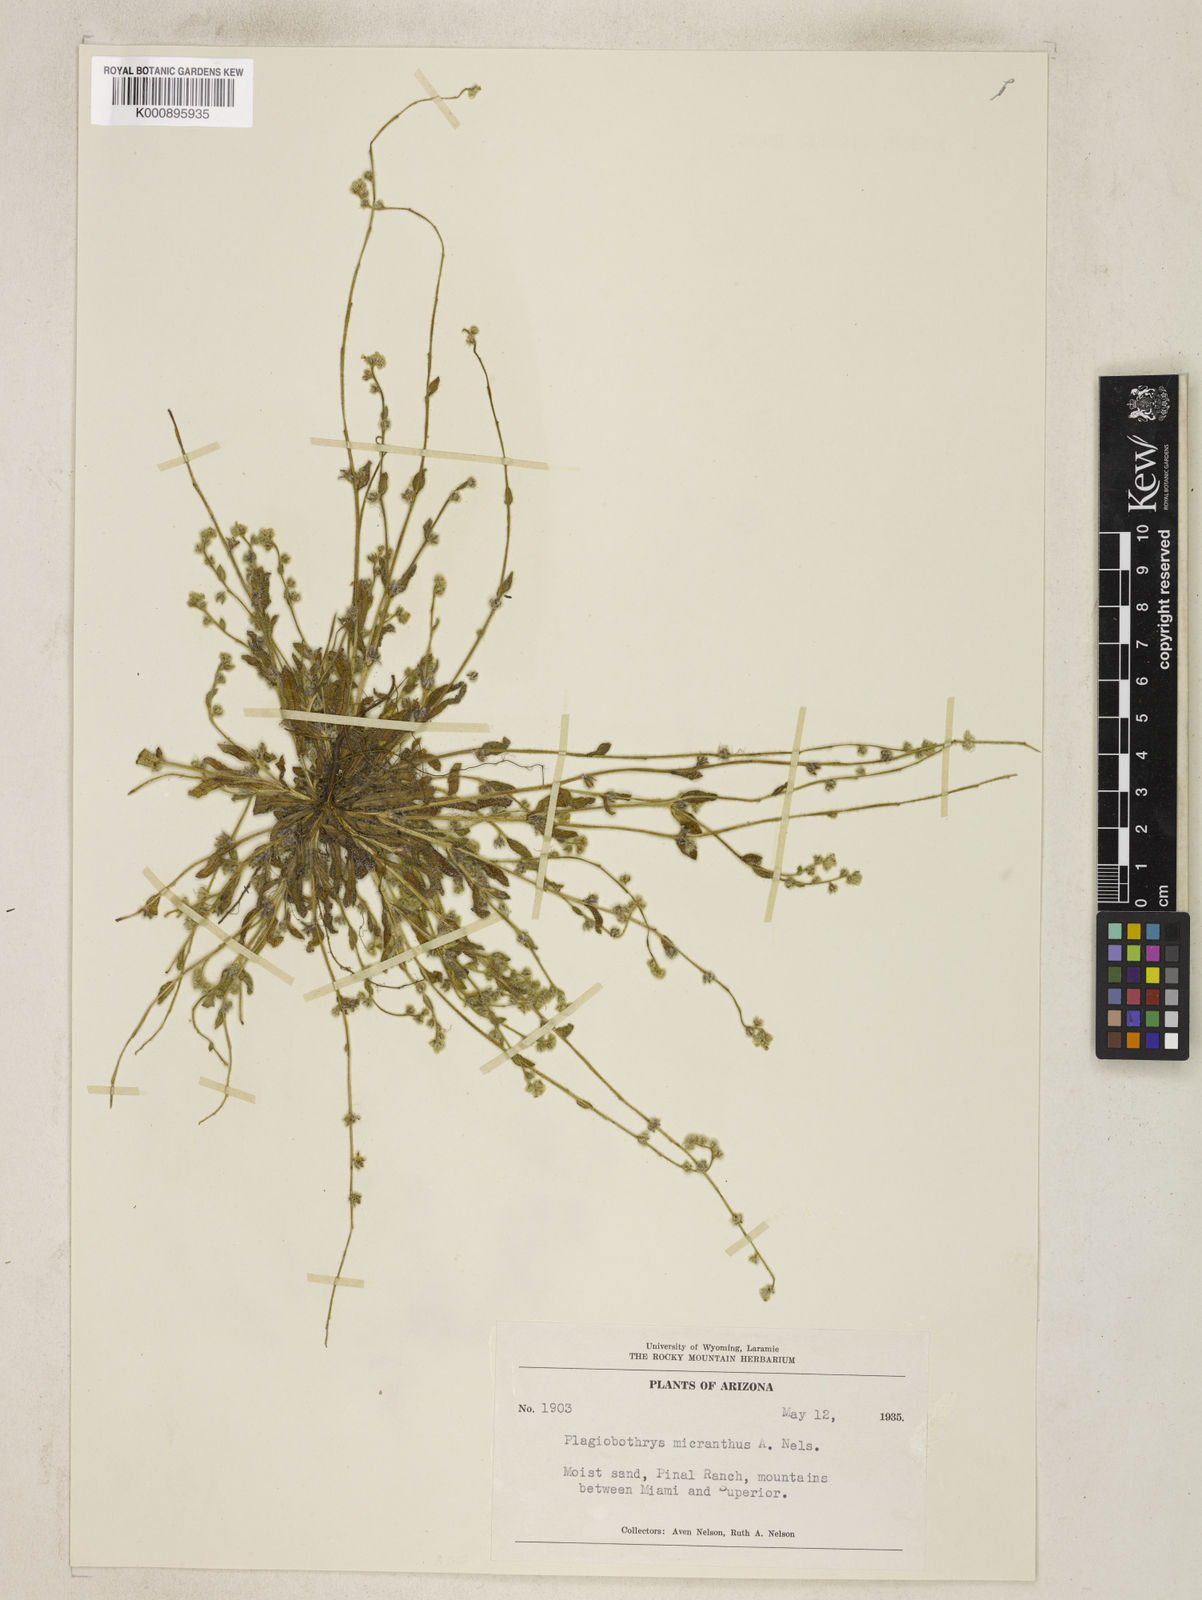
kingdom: Plantae
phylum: Tracheophyta
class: Magnoliopsida
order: Boraginales
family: Boraginaceae
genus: Plagiobothrys
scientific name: Plagiobothrys collinus
